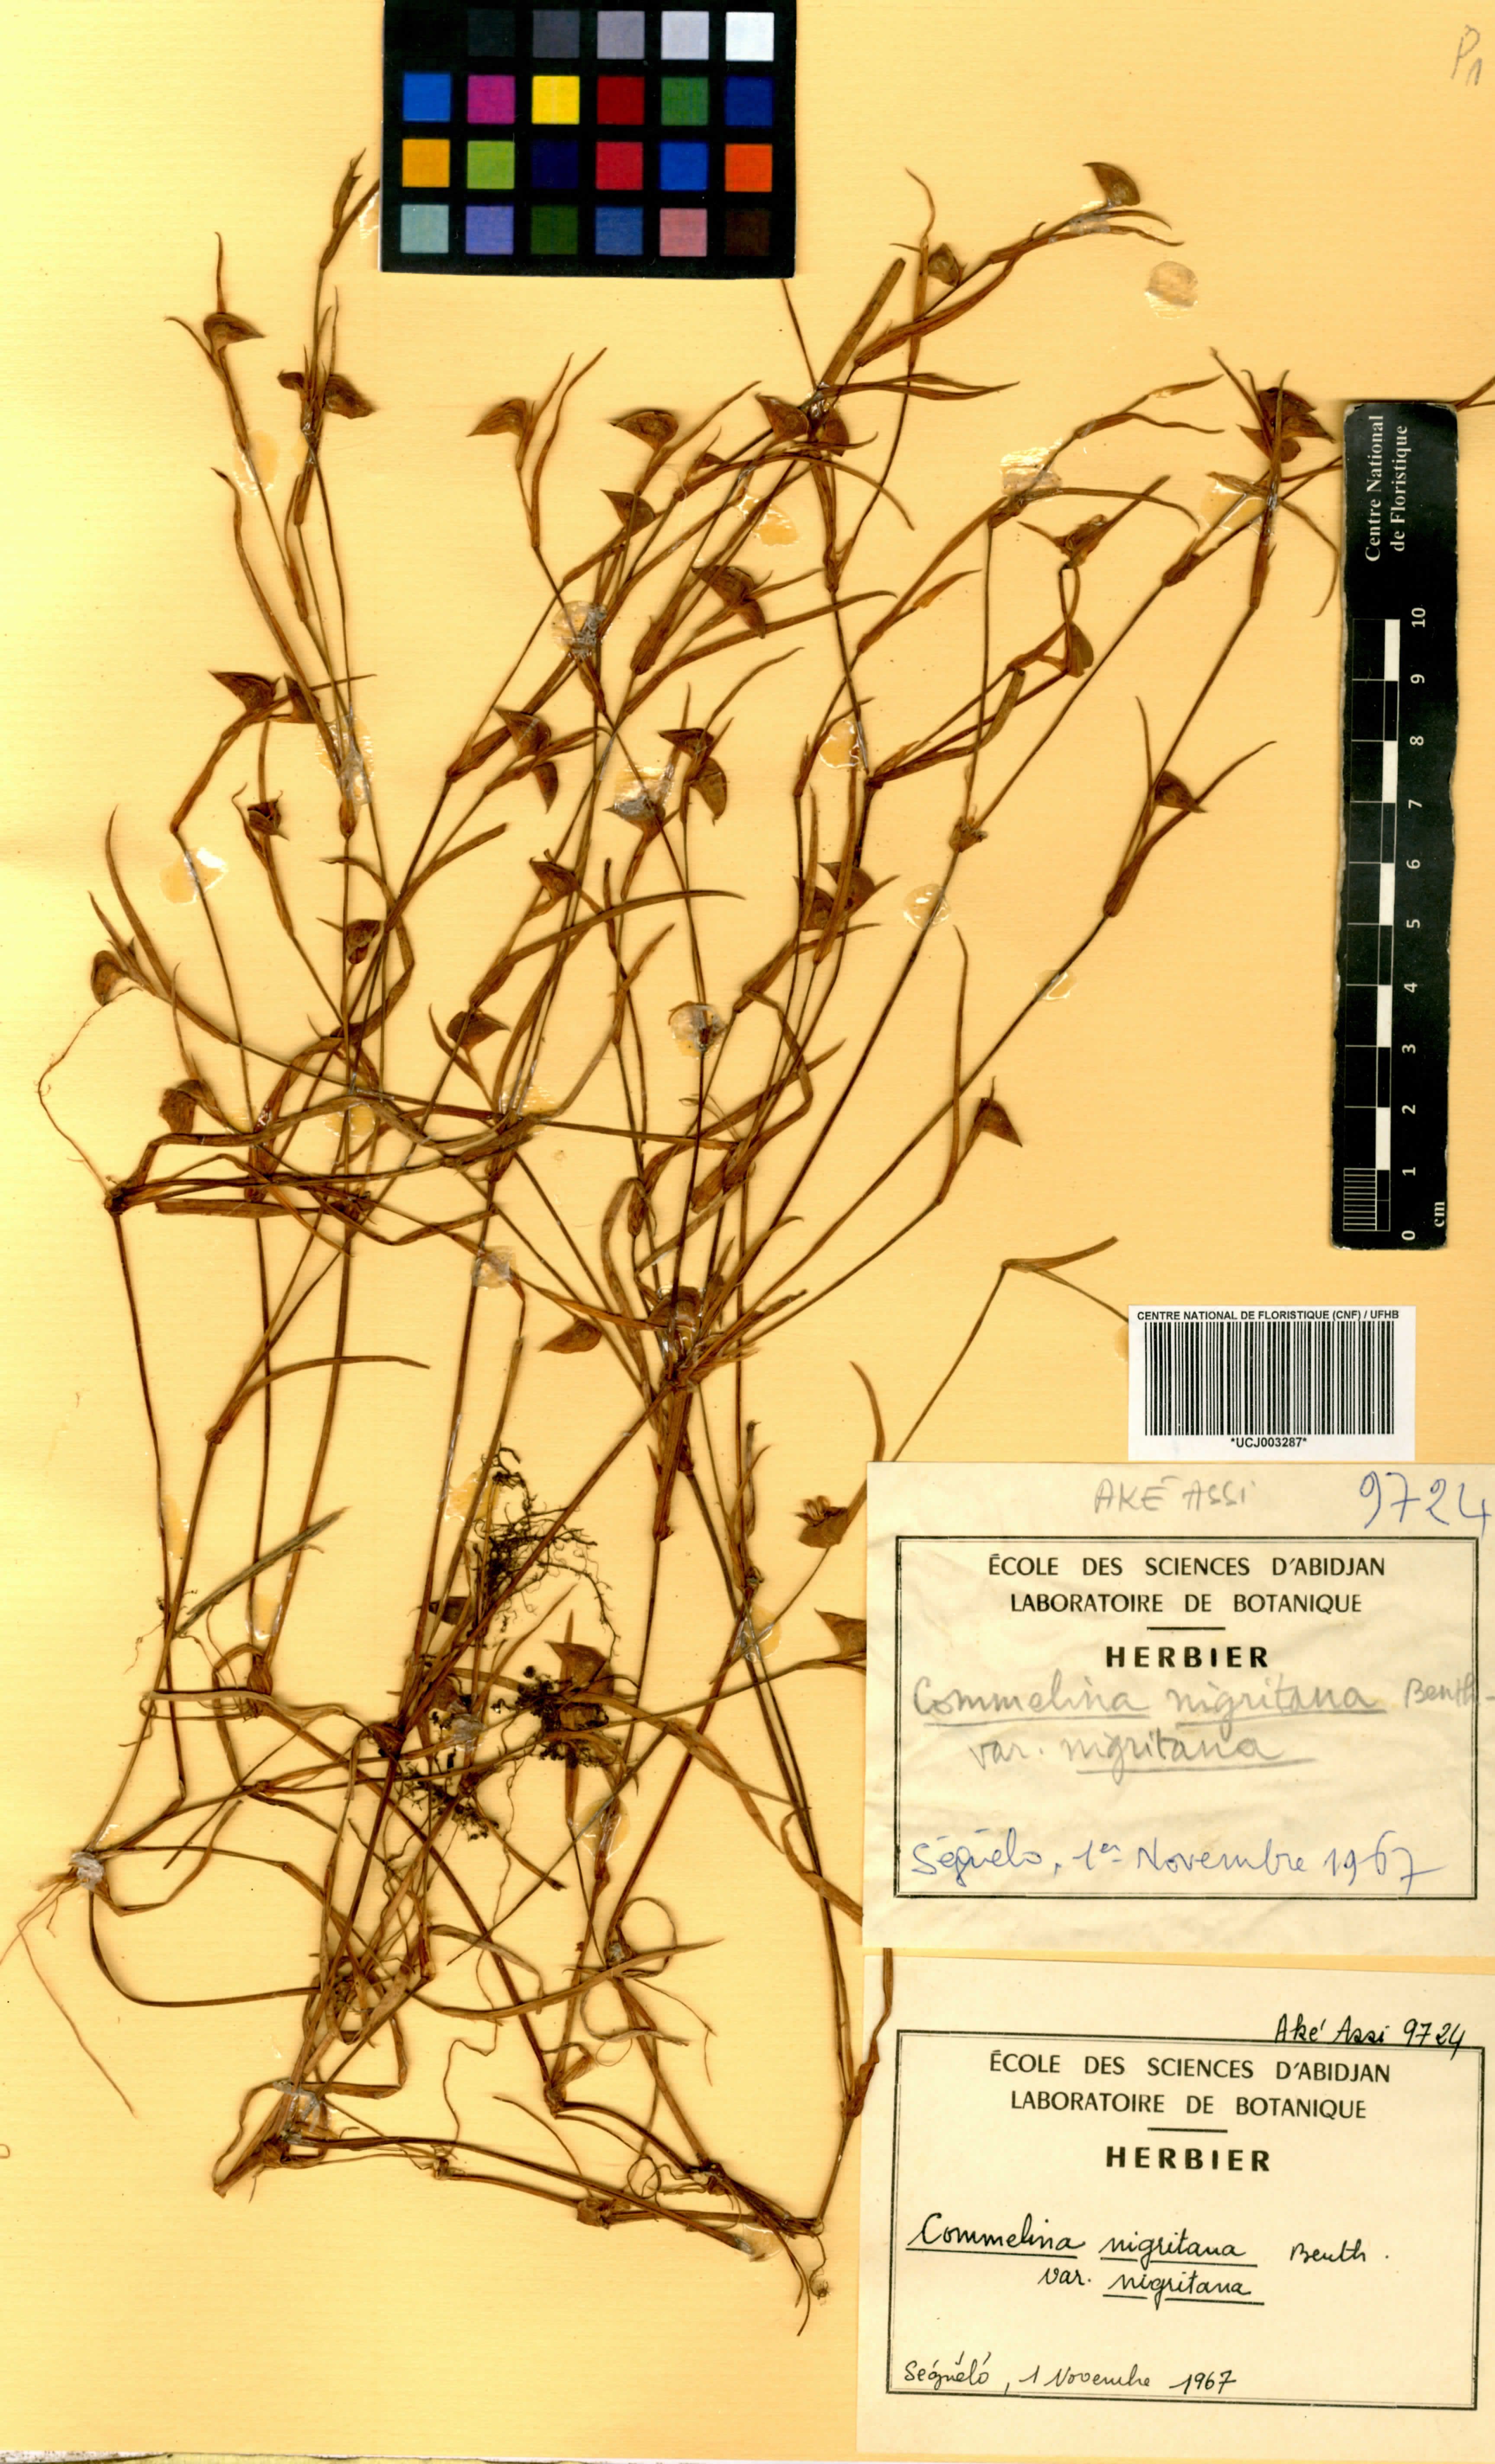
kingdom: Plantae
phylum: Tracheophyta
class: Liliopsida
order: Commelinales
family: Commelinaceae
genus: Commelina
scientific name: Commelina nigritana
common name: African dayflower
